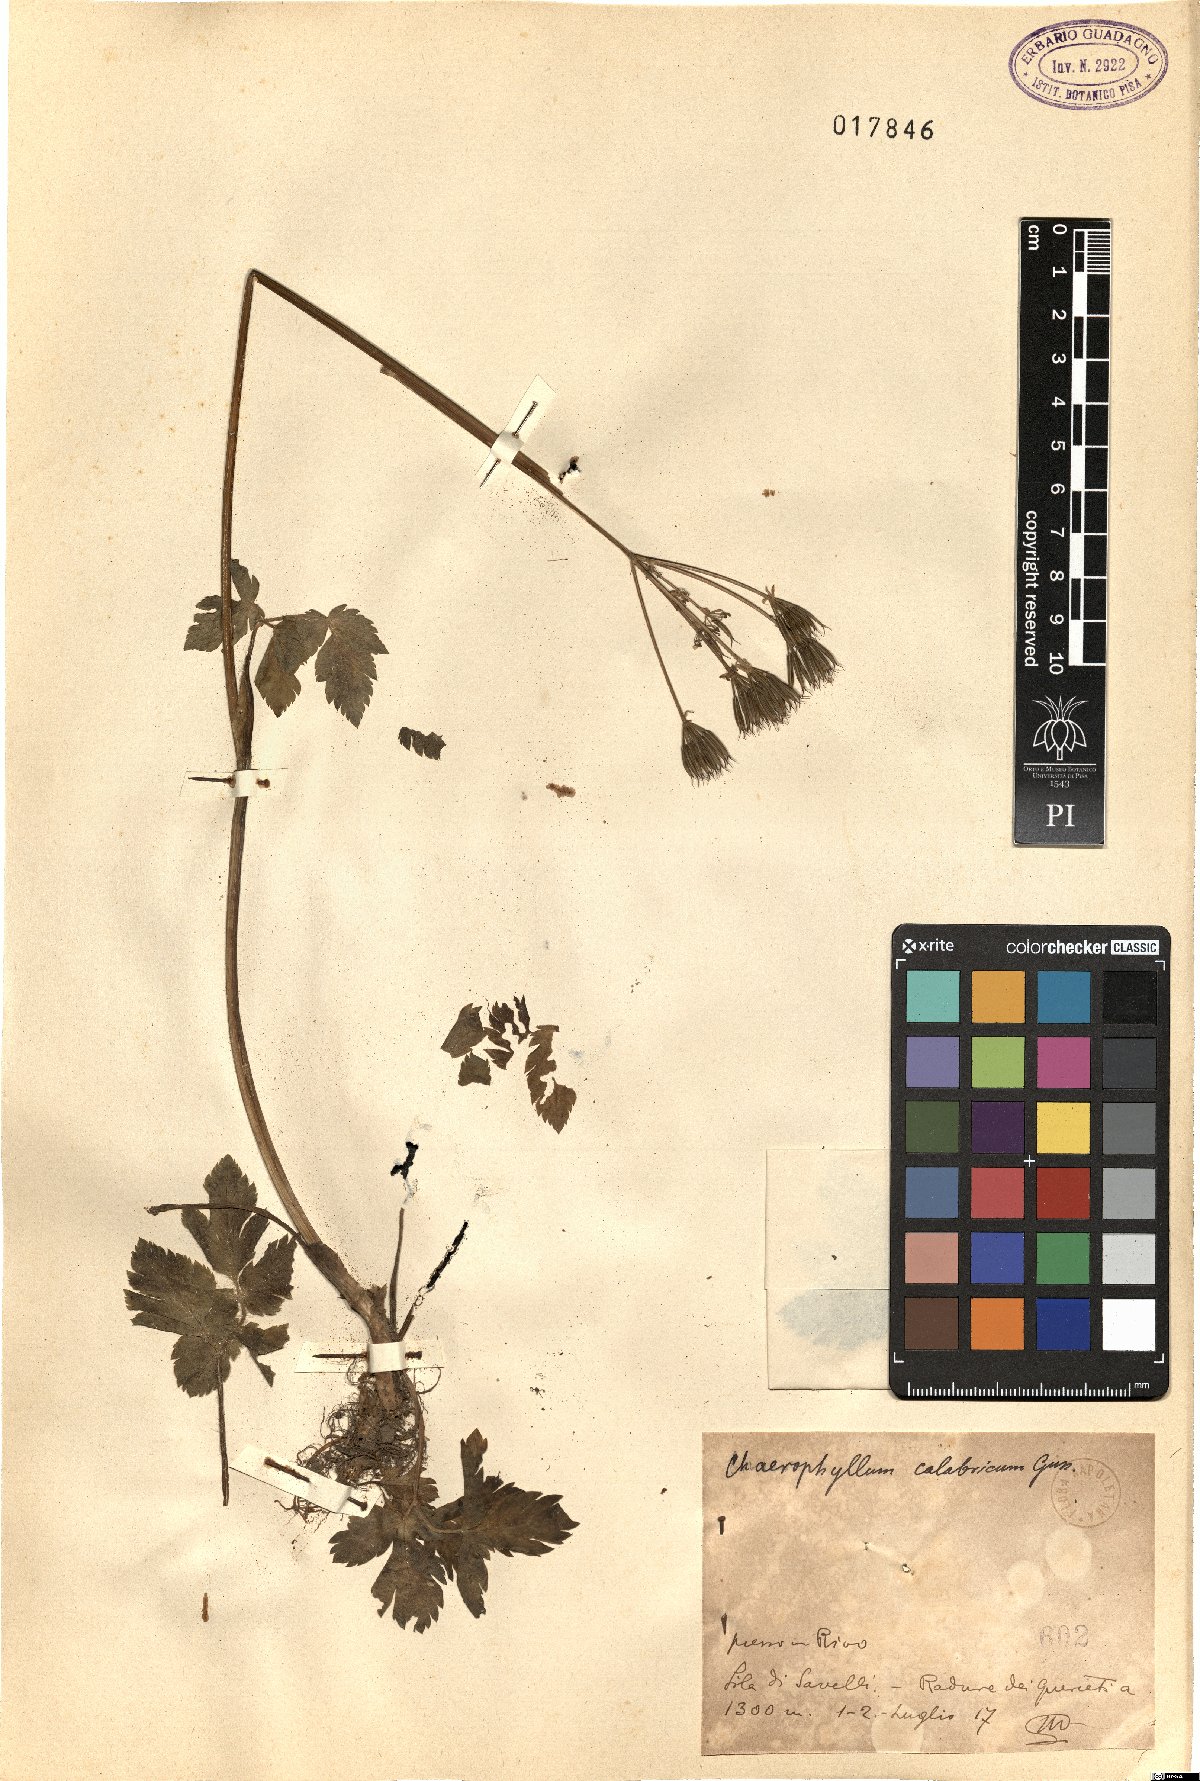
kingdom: Plantae
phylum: Tracheophyta
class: Magnoliopsida
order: Apiales
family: Apiaceae
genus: Chaerophyllum
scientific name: Chaerophyllum hirsutum
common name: Hairy chervil
